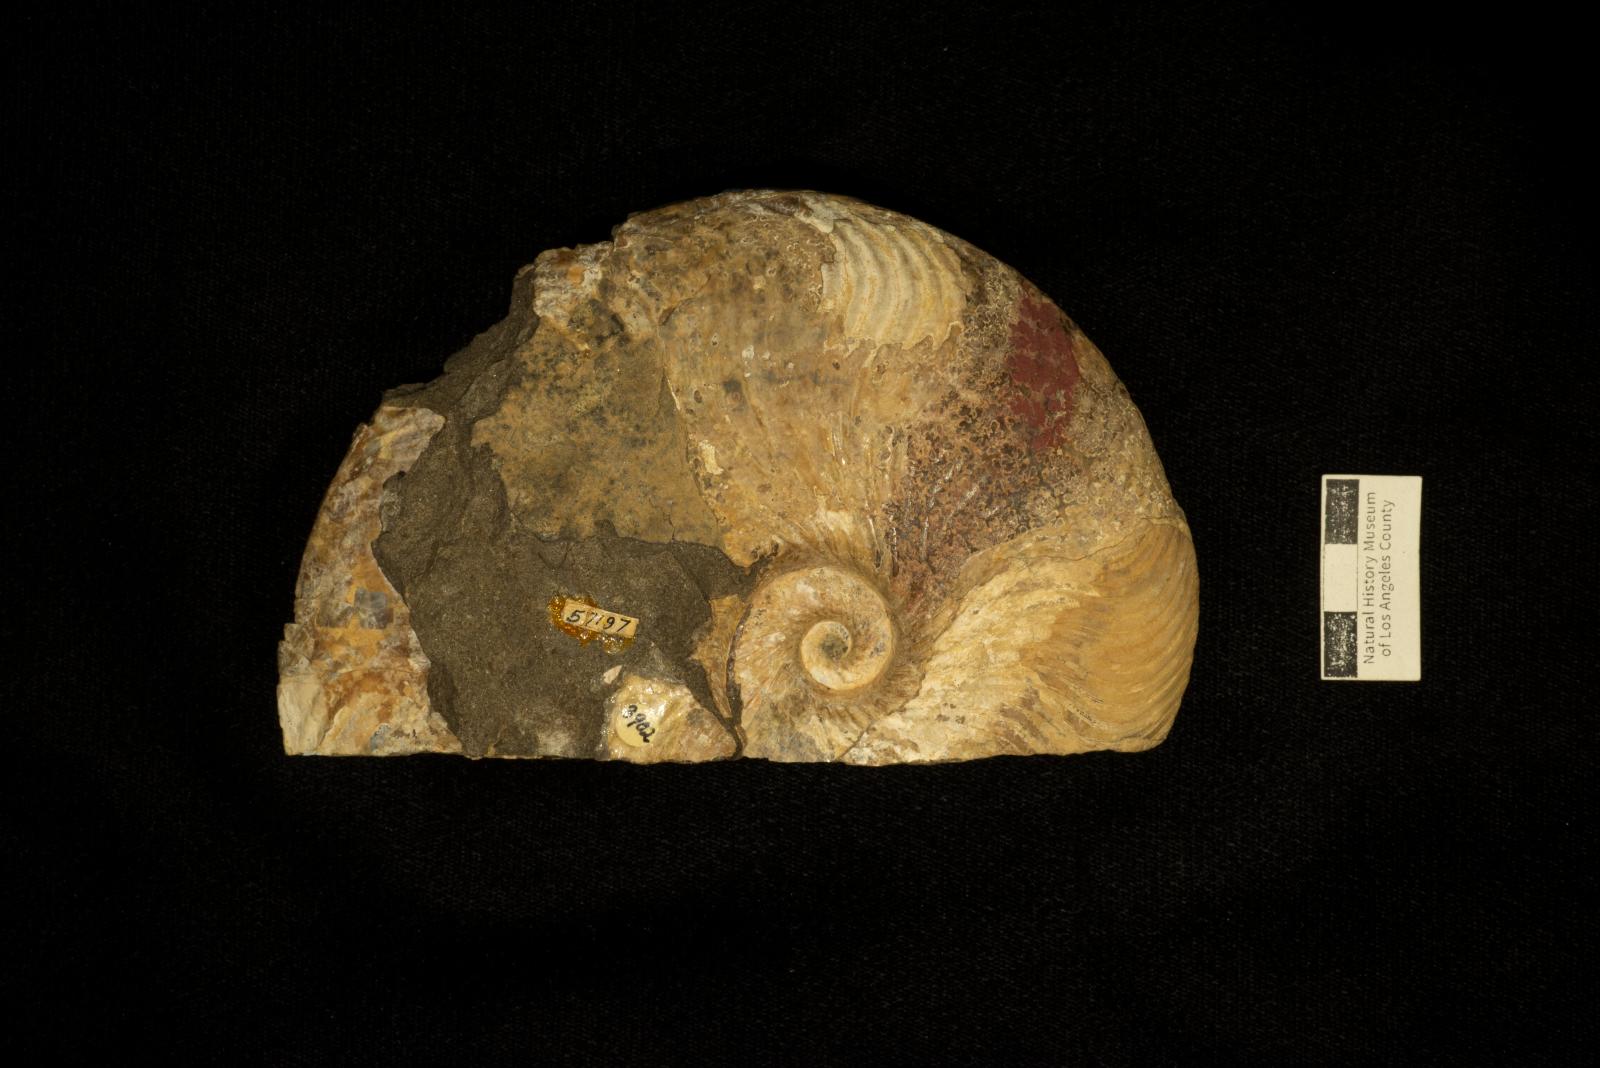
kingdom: Animalia
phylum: Mollusca
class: Cephalopoda
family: Placenticeratidae
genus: Metaplacenticeras
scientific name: Metaplacenticeras Placenticeras pacificum
